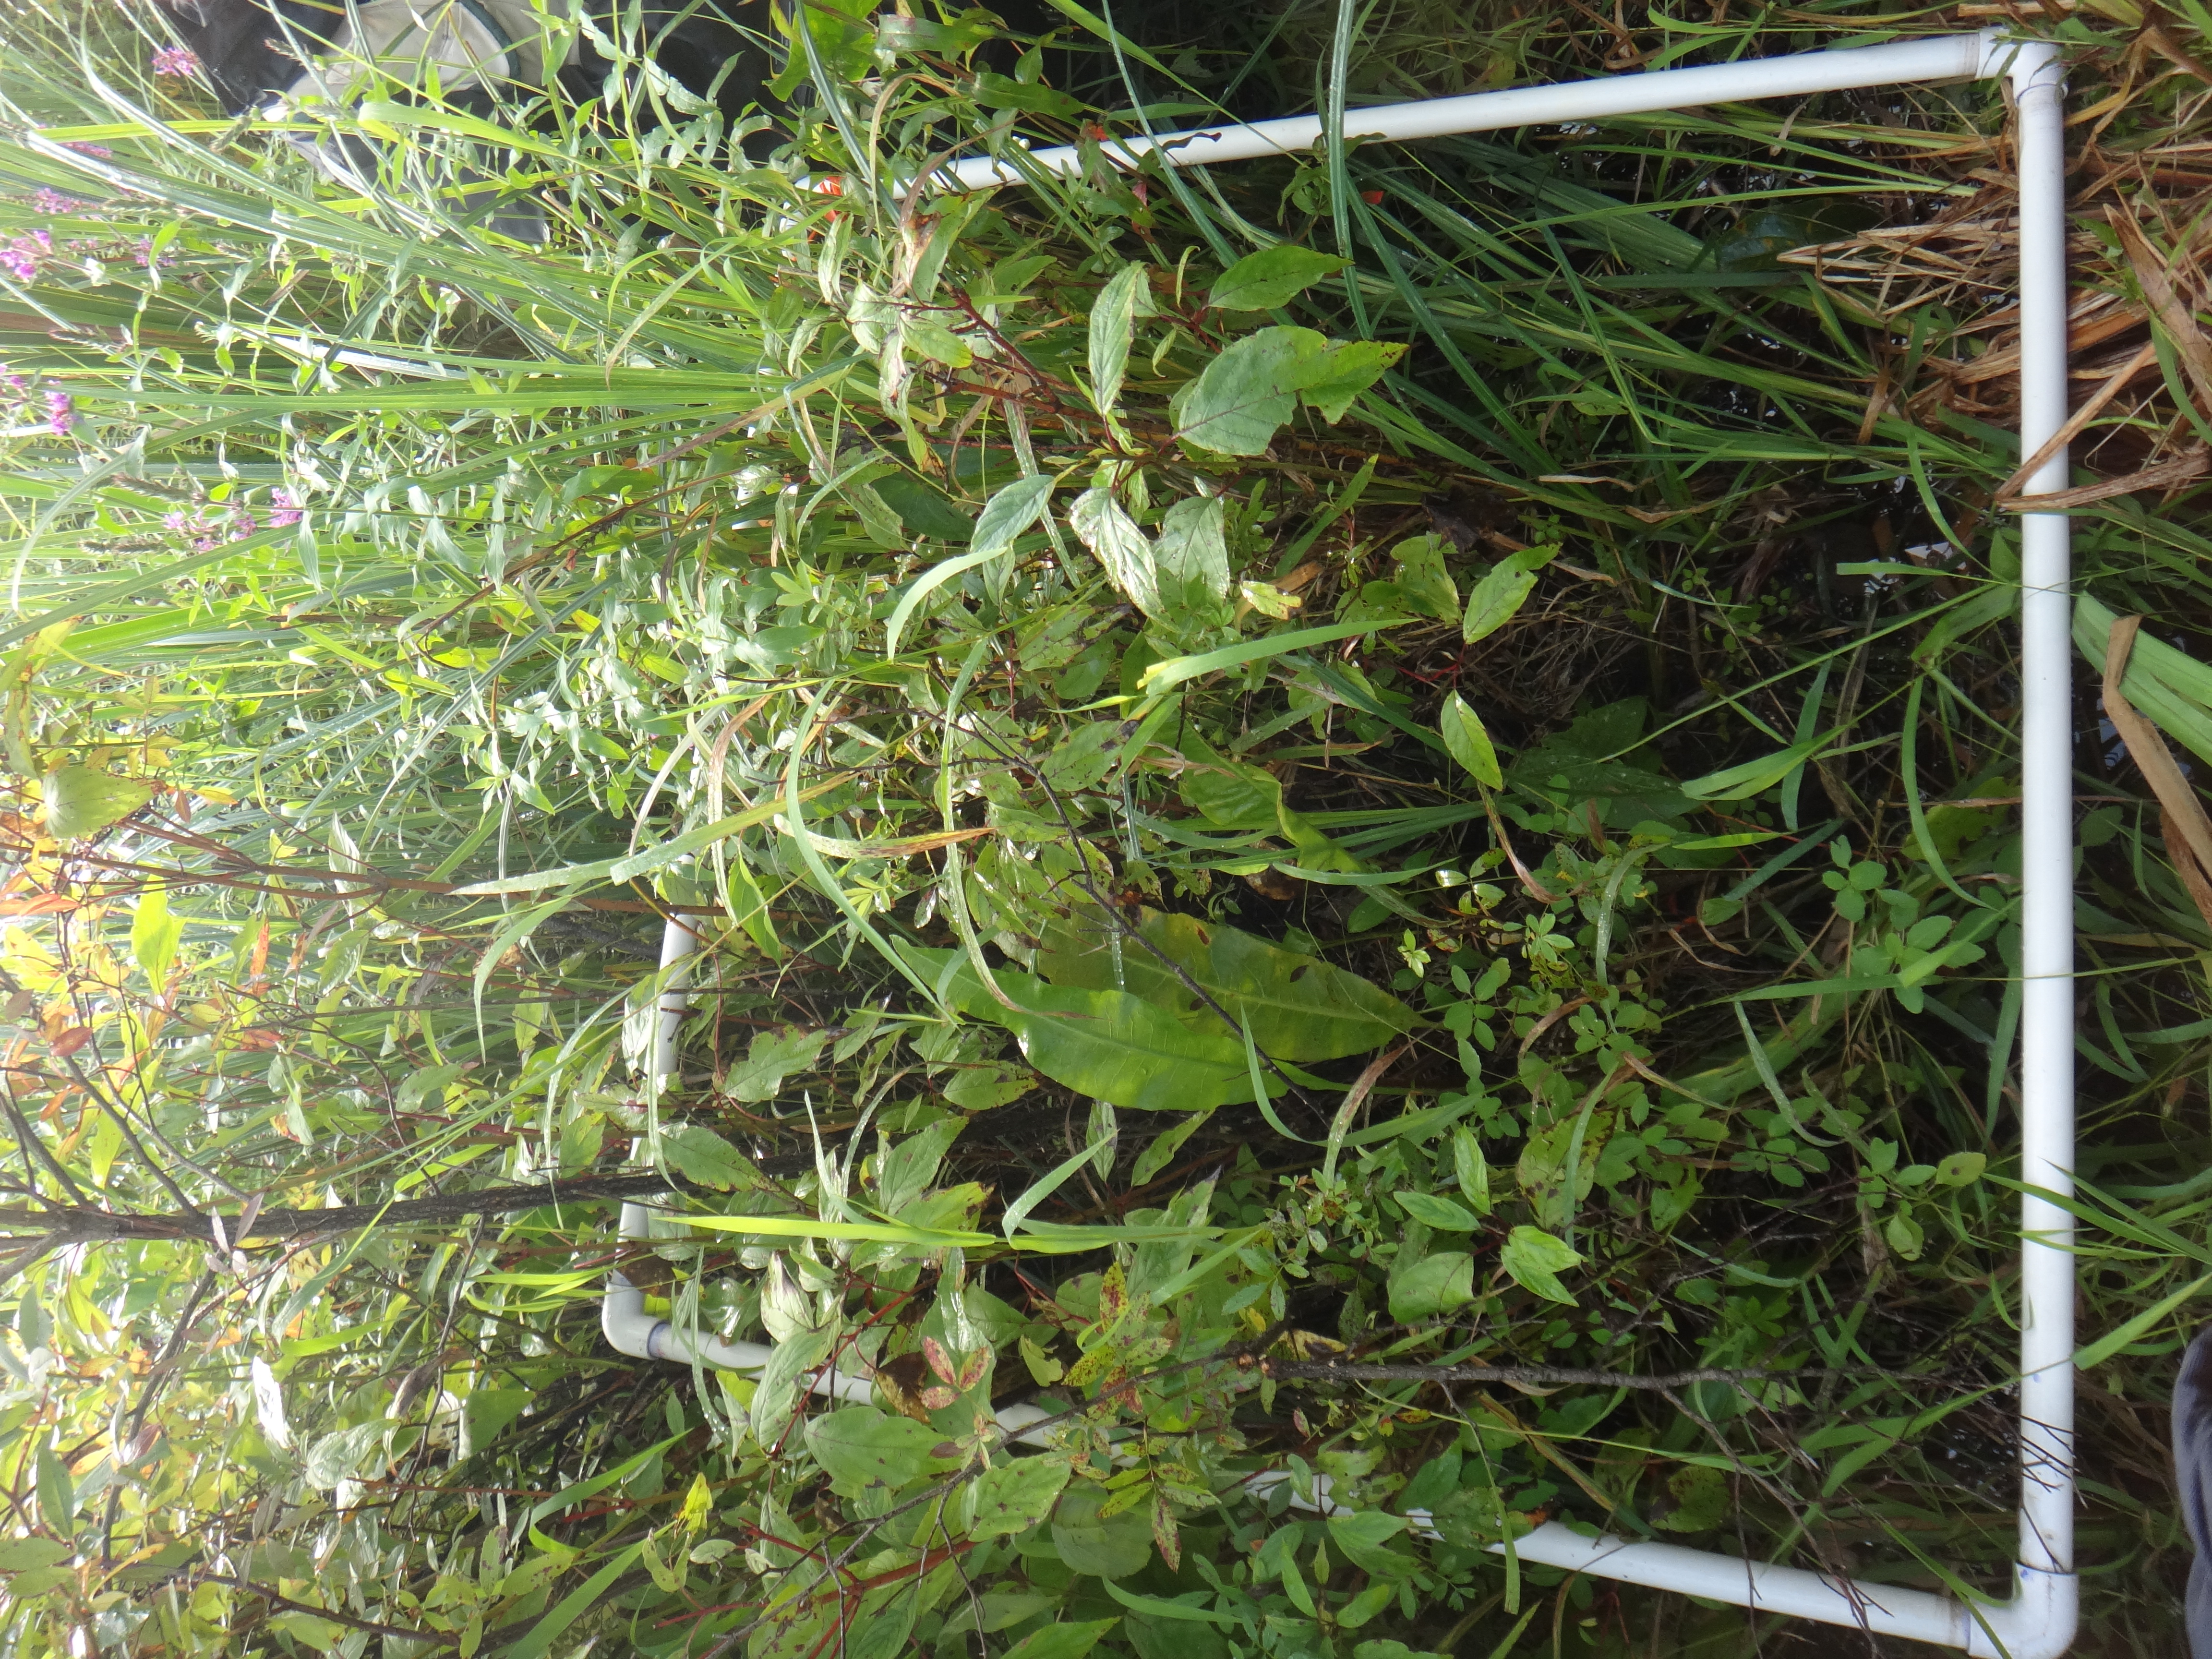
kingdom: Plantae
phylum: Tracheophyta
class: Magnoliopsida
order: Cornales
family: Cornaceae
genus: Cornus
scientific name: Cornus sericea
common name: Red-osier dogwood
